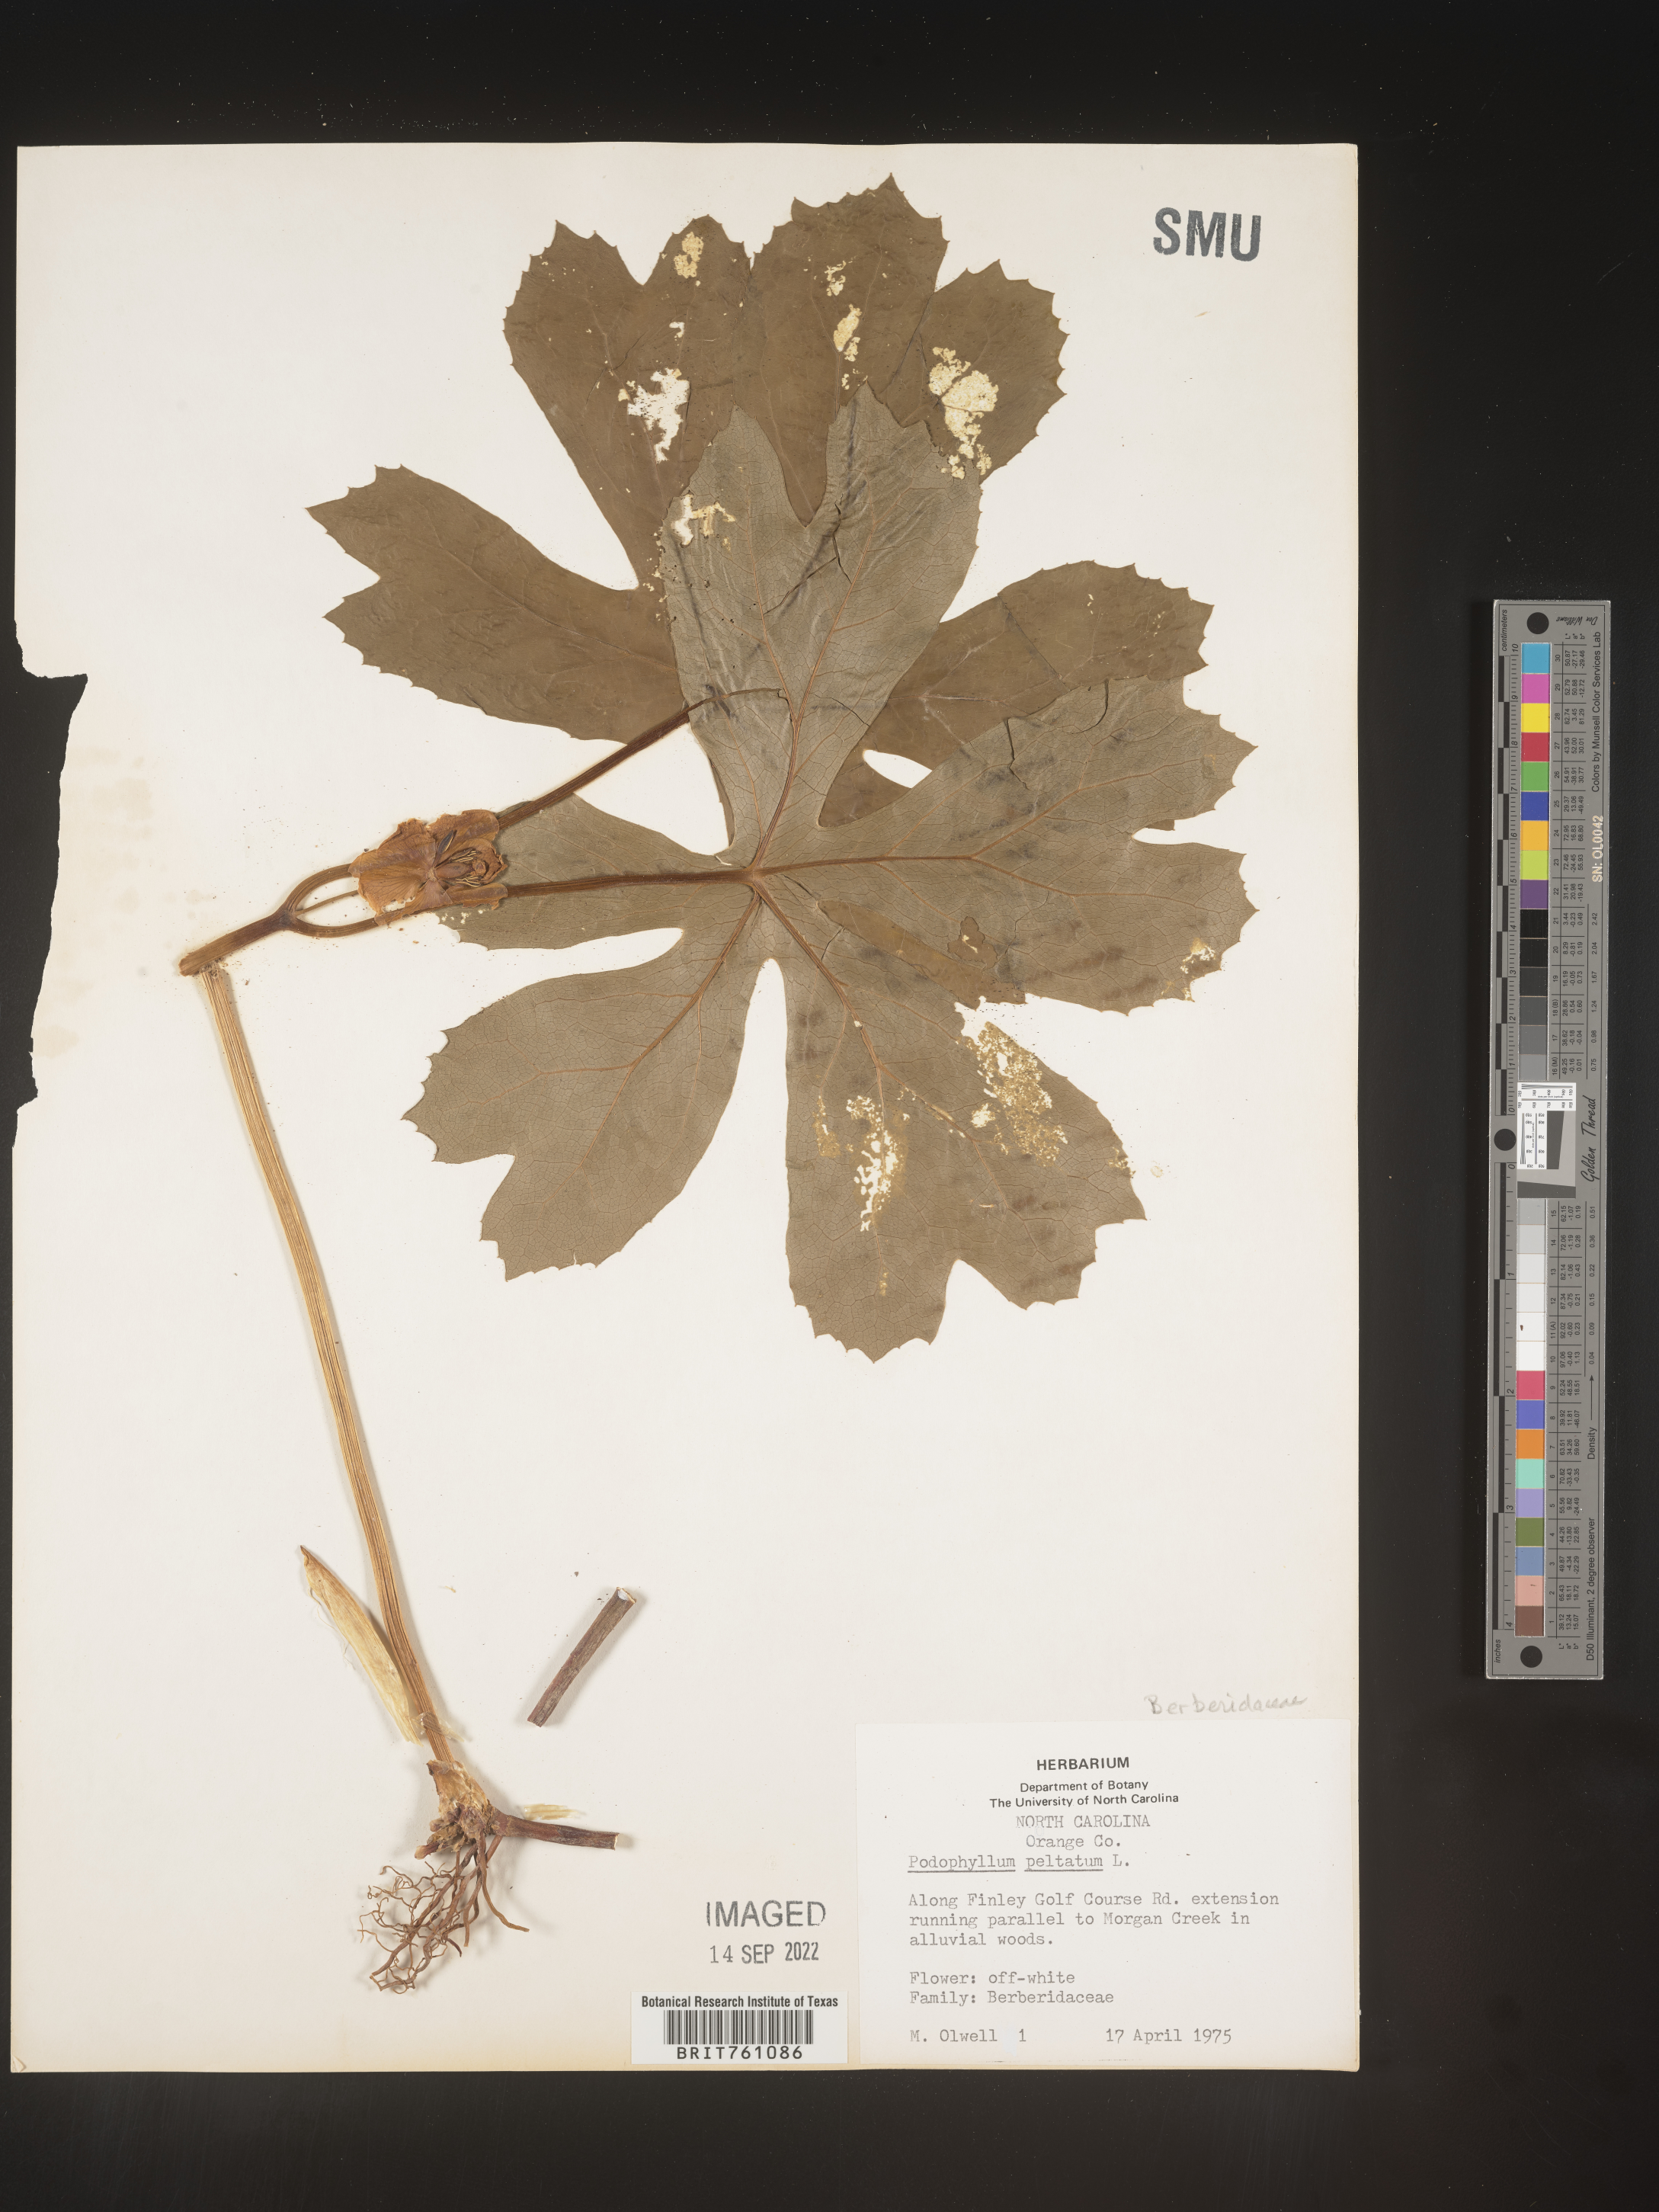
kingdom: Plantae
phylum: Tracheophyta
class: Magnoliopsida
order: Ranunculales
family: Berberidaceae
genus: Podophyllum
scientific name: Podophyllum peltatum
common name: Wild mandrake
